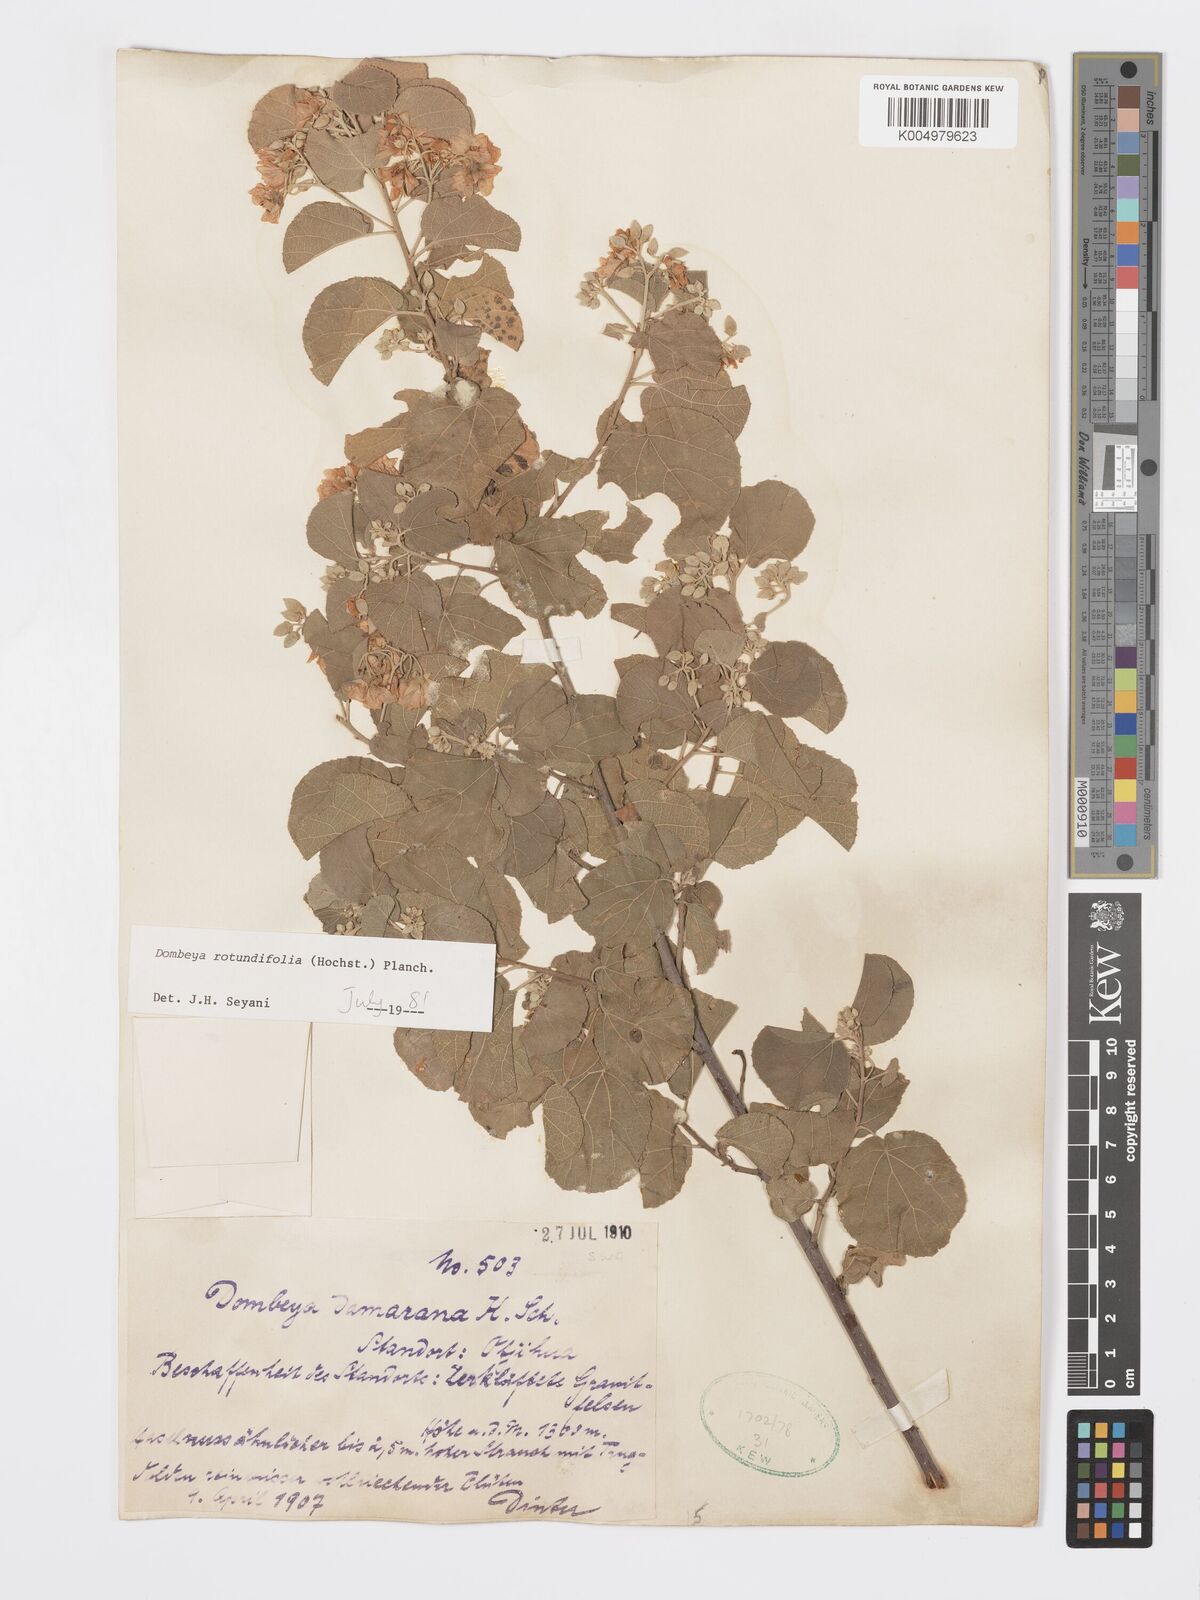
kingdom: Plantae
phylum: Tracheophyta
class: Magnoliopsida
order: Malvales
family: Malvaceae
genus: Dombeya
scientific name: Dombeya rotundifolia
